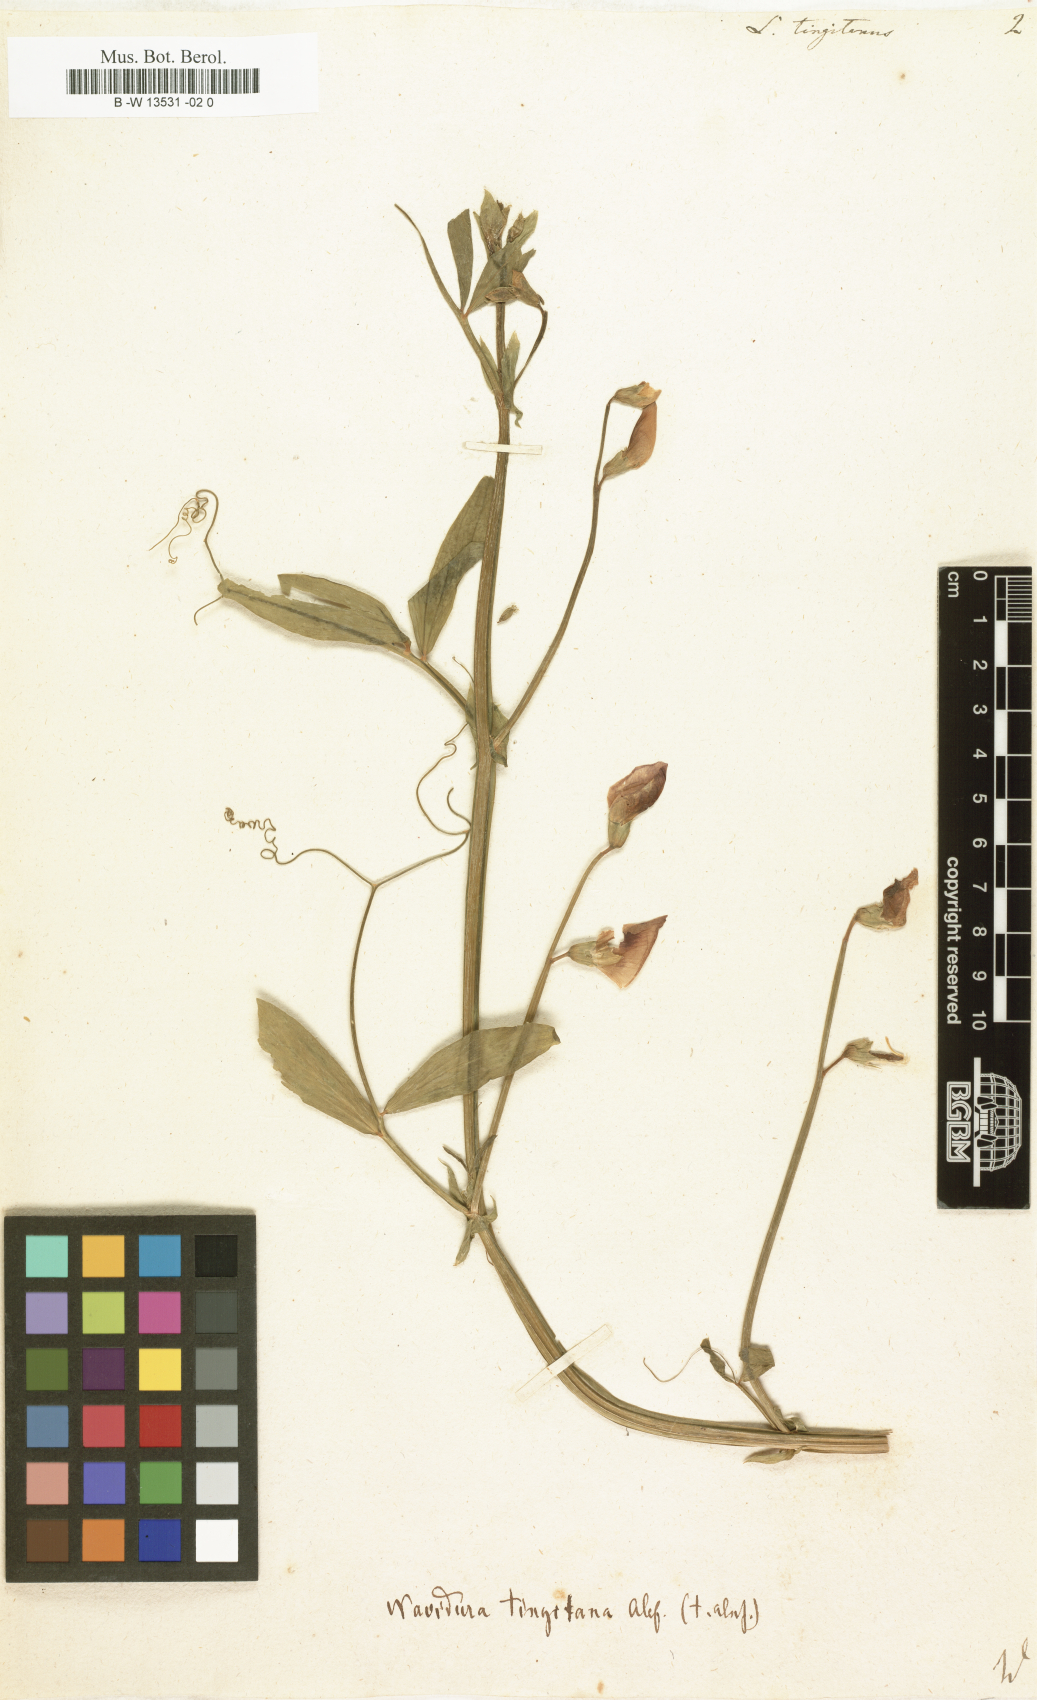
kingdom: Plantae
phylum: Tracheophyta
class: Magnoliopsida
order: Fabales
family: Fabaceae
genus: Lathyrus
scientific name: Lathyrus tingitanus
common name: Tangier pea
